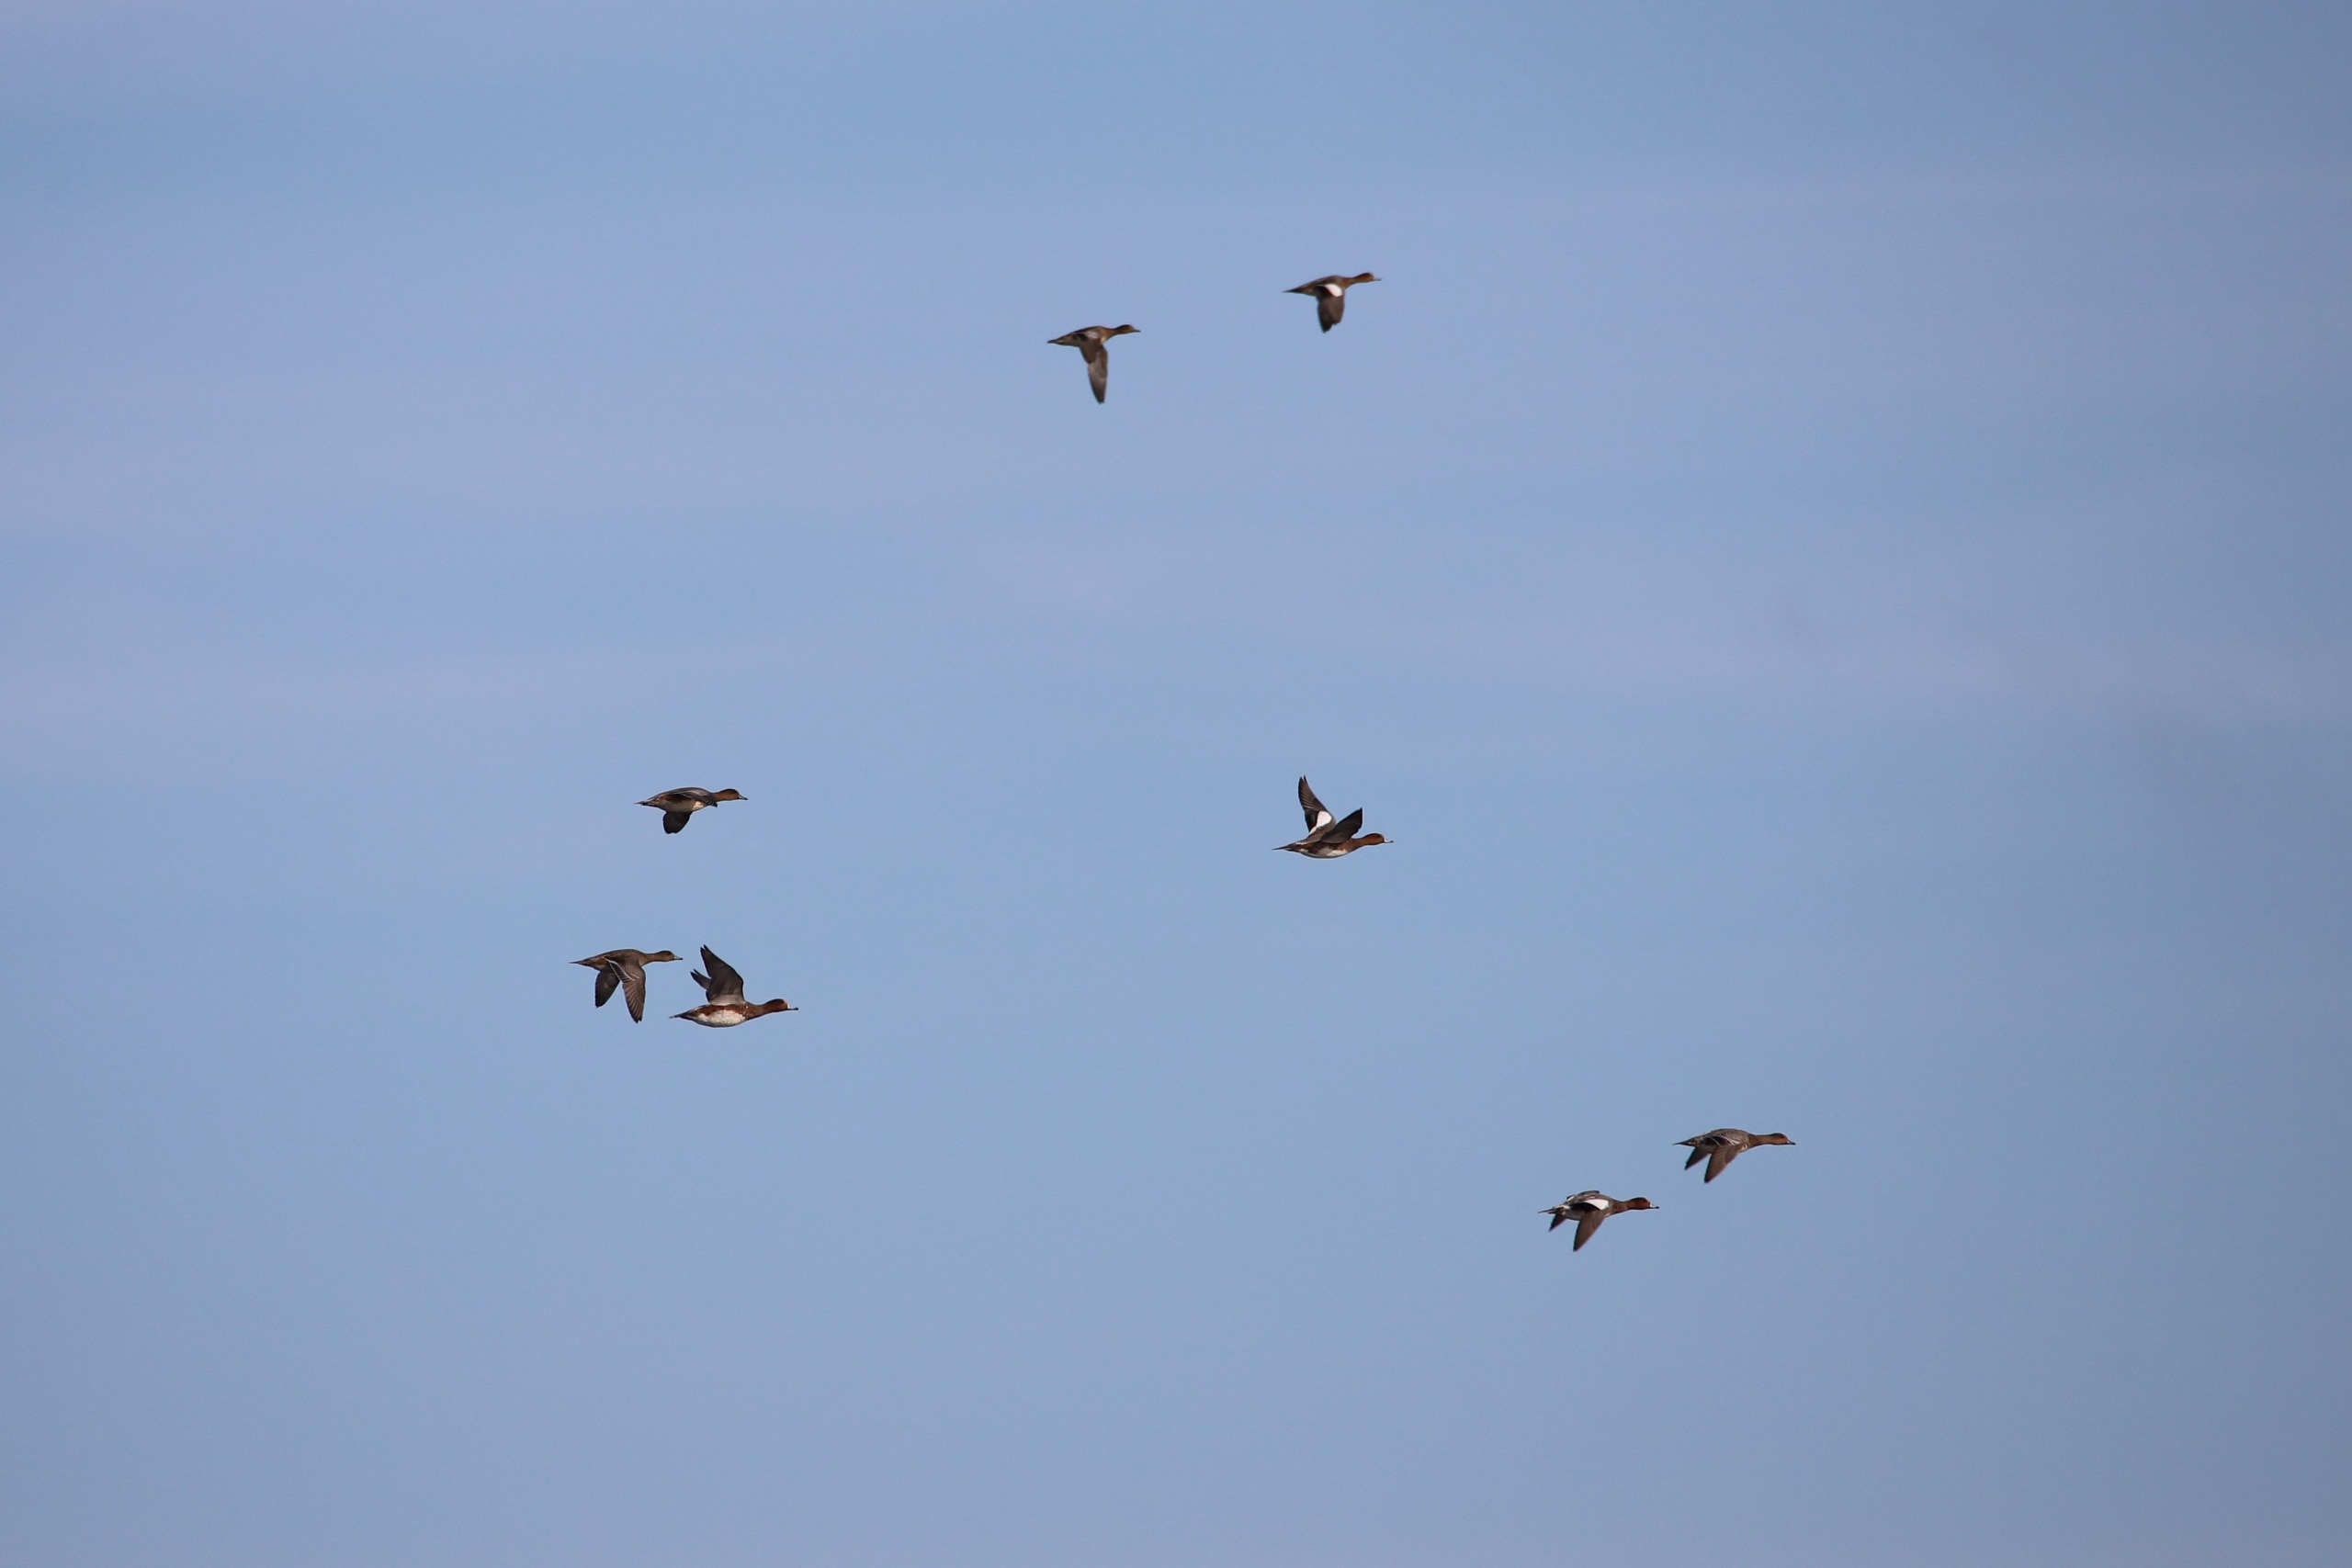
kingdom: Animalia
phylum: Chordata
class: Aves
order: Anseriformes
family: Anatidae
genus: Mareca
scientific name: Mareca penelope
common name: Pibeand
